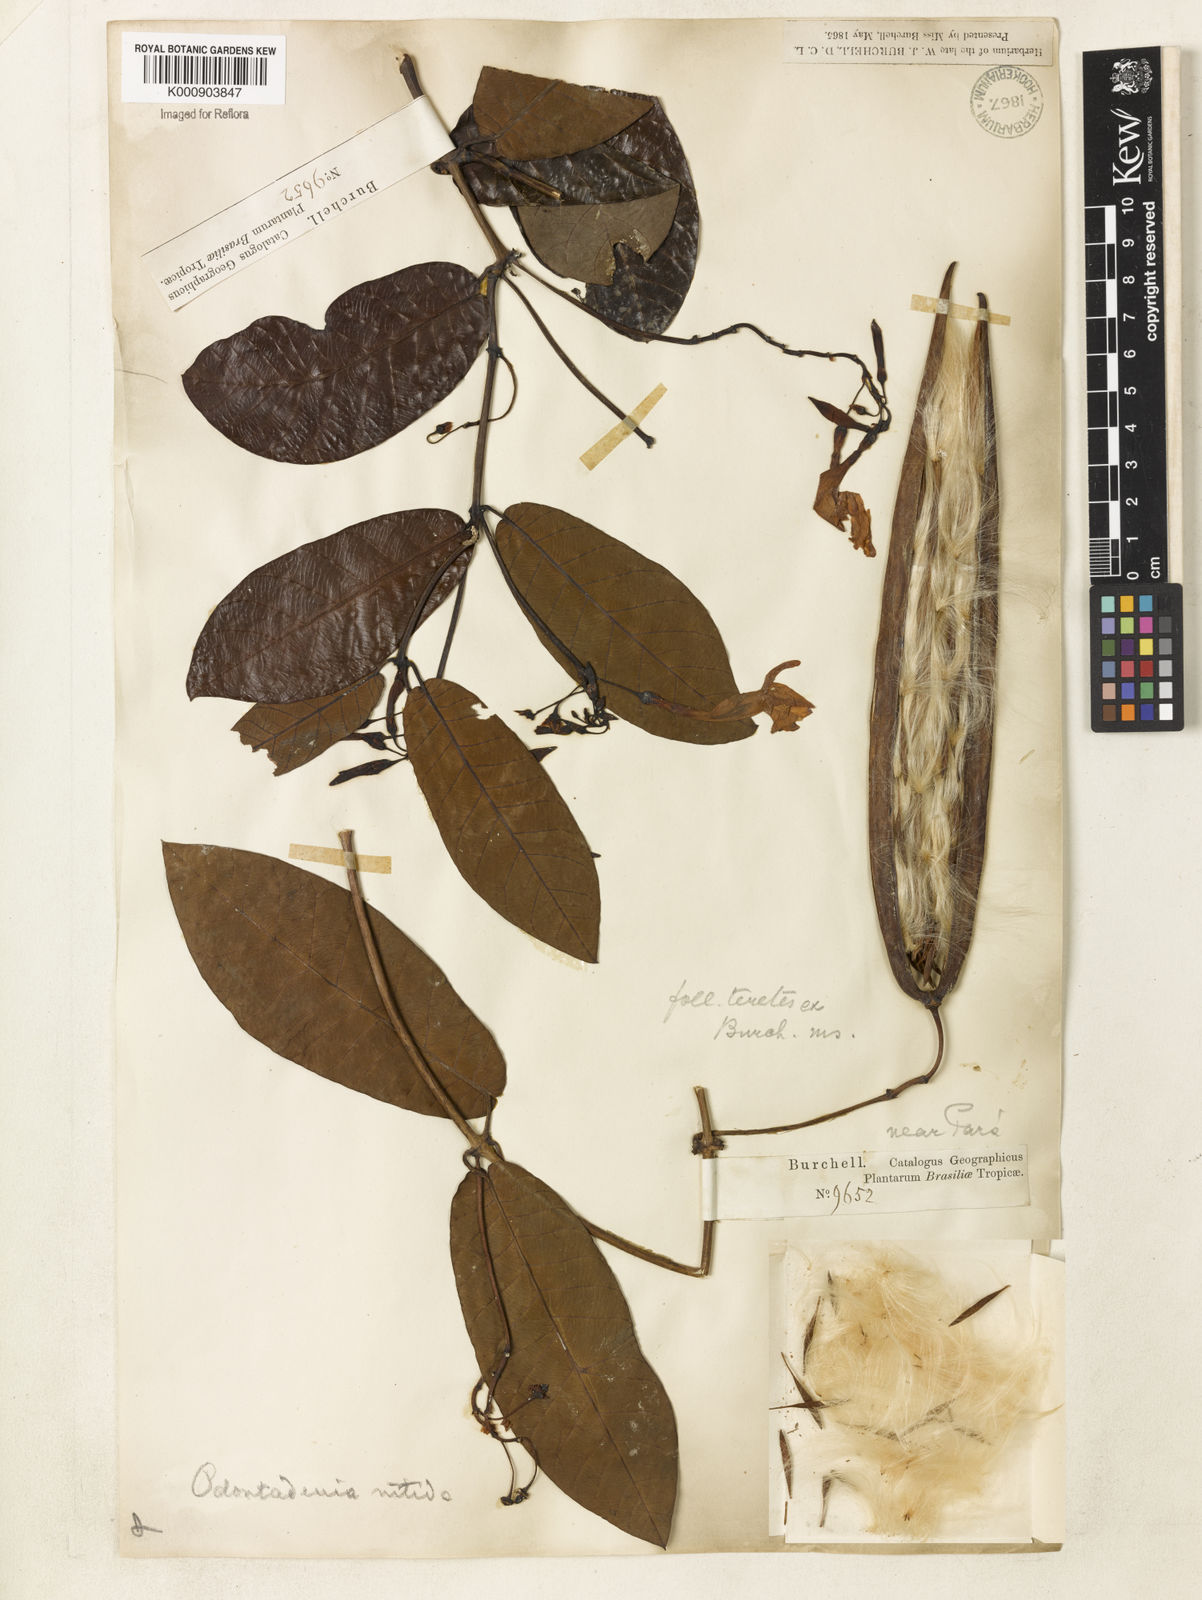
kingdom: Plantae
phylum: Tracheophyta
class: Magnoliopsida
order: Gentianales
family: Apocynaceae
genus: Odontadenia
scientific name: Odontadenia
